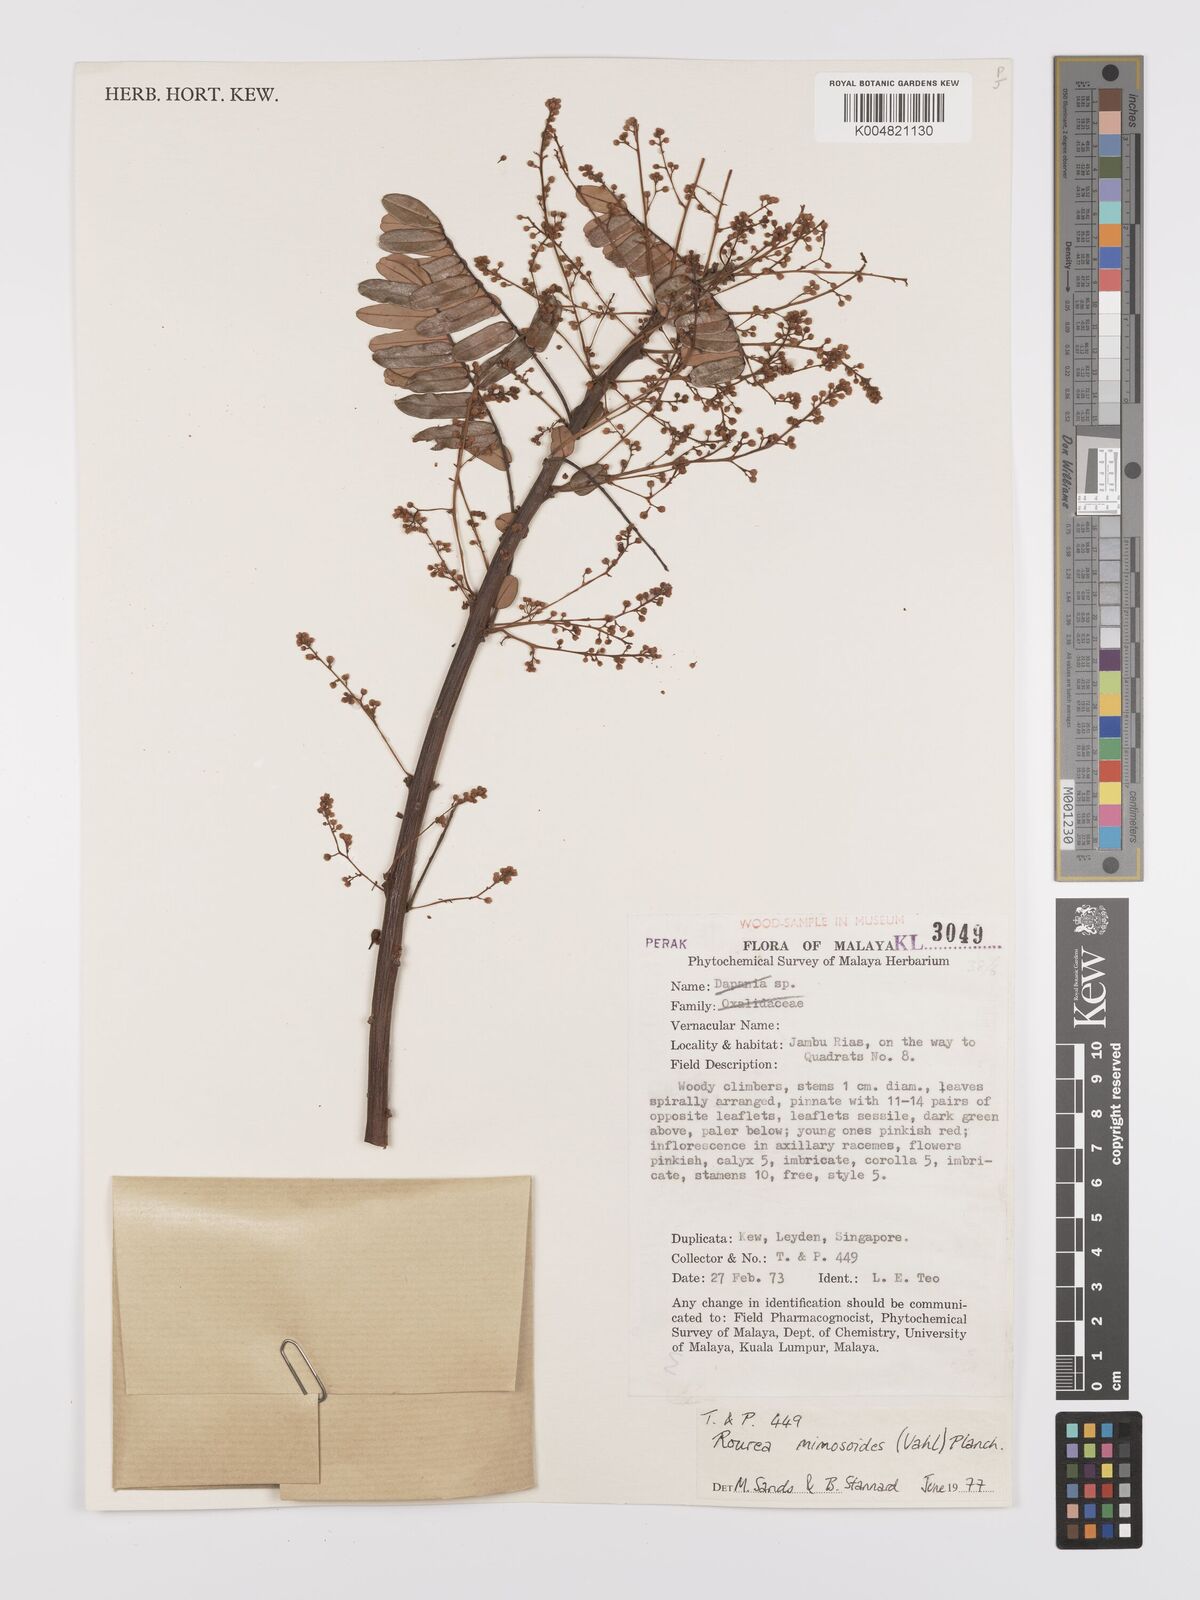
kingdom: Plantae
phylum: Tracheophyta
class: Magnoliopsida
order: Oxalidales
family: Connaraceae
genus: Rourea
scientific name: Rourea mimosoides
